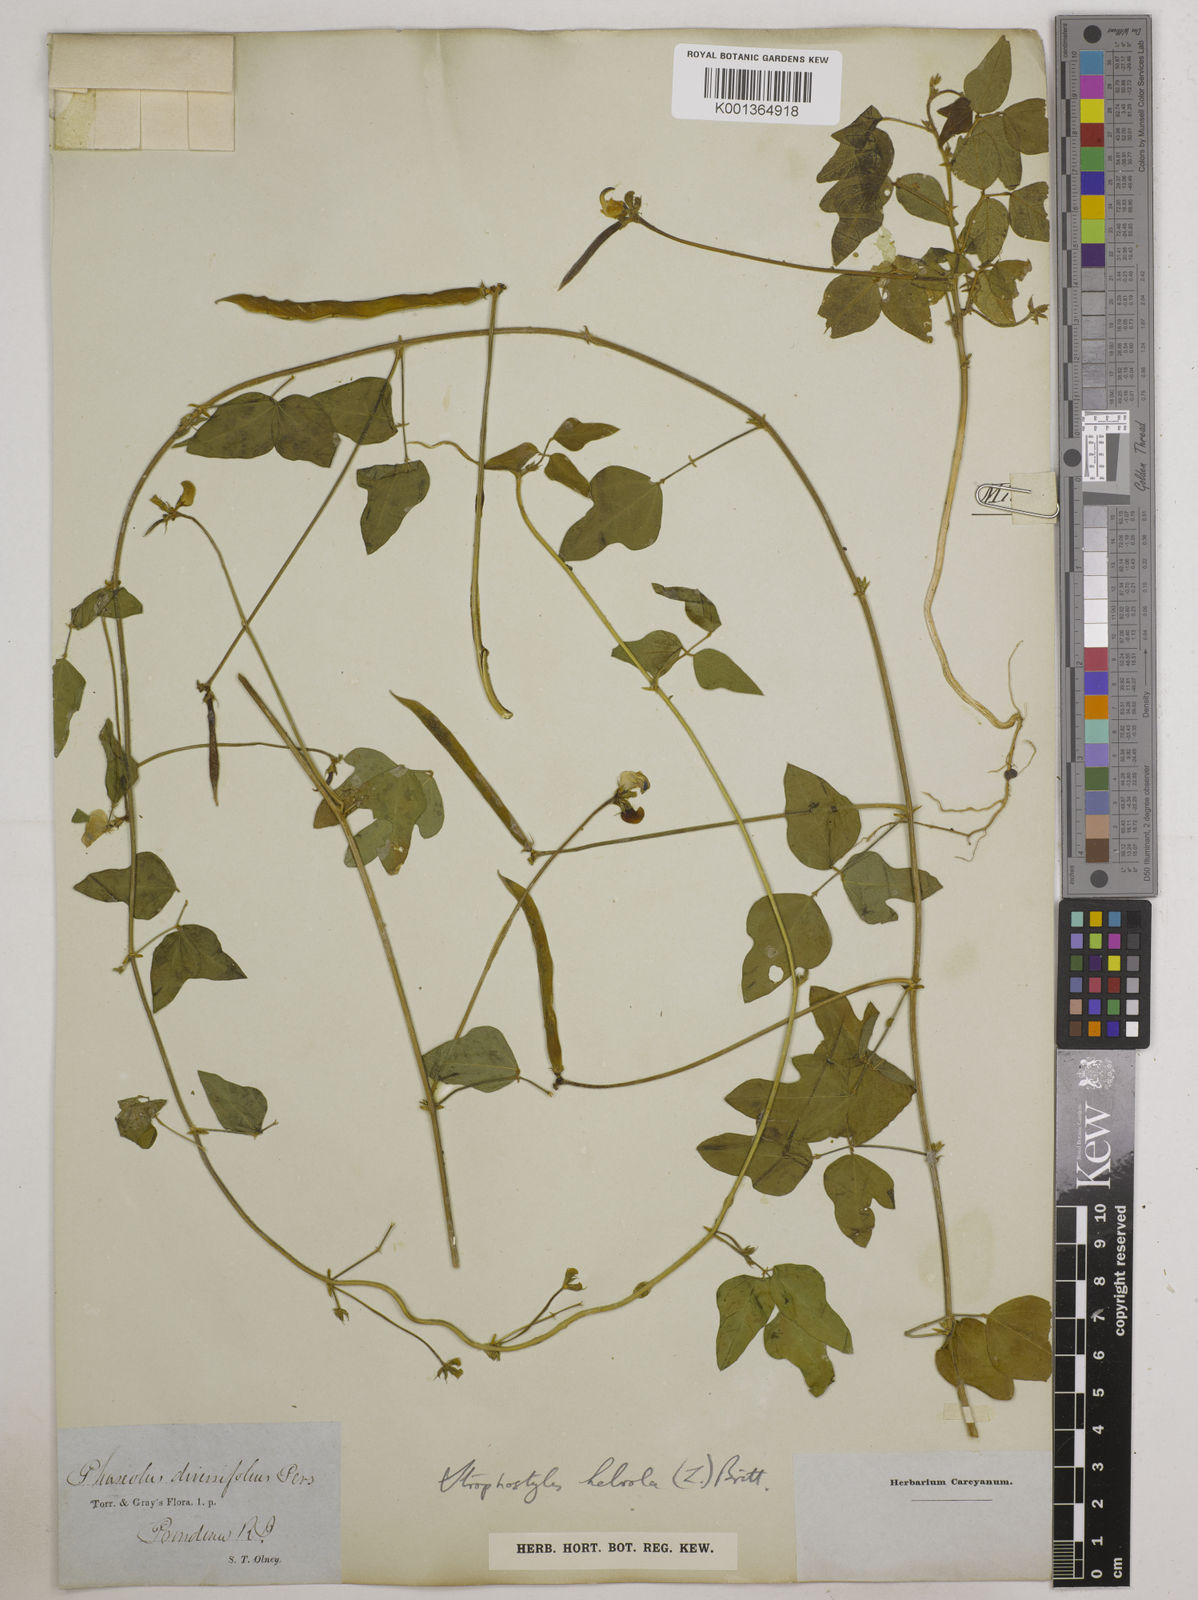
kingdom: Plantae
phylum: Tracheophyta
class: Magnoliopsida
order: Fabales
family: Fabaceae
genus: Strophostyles
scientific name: Strophostyles
